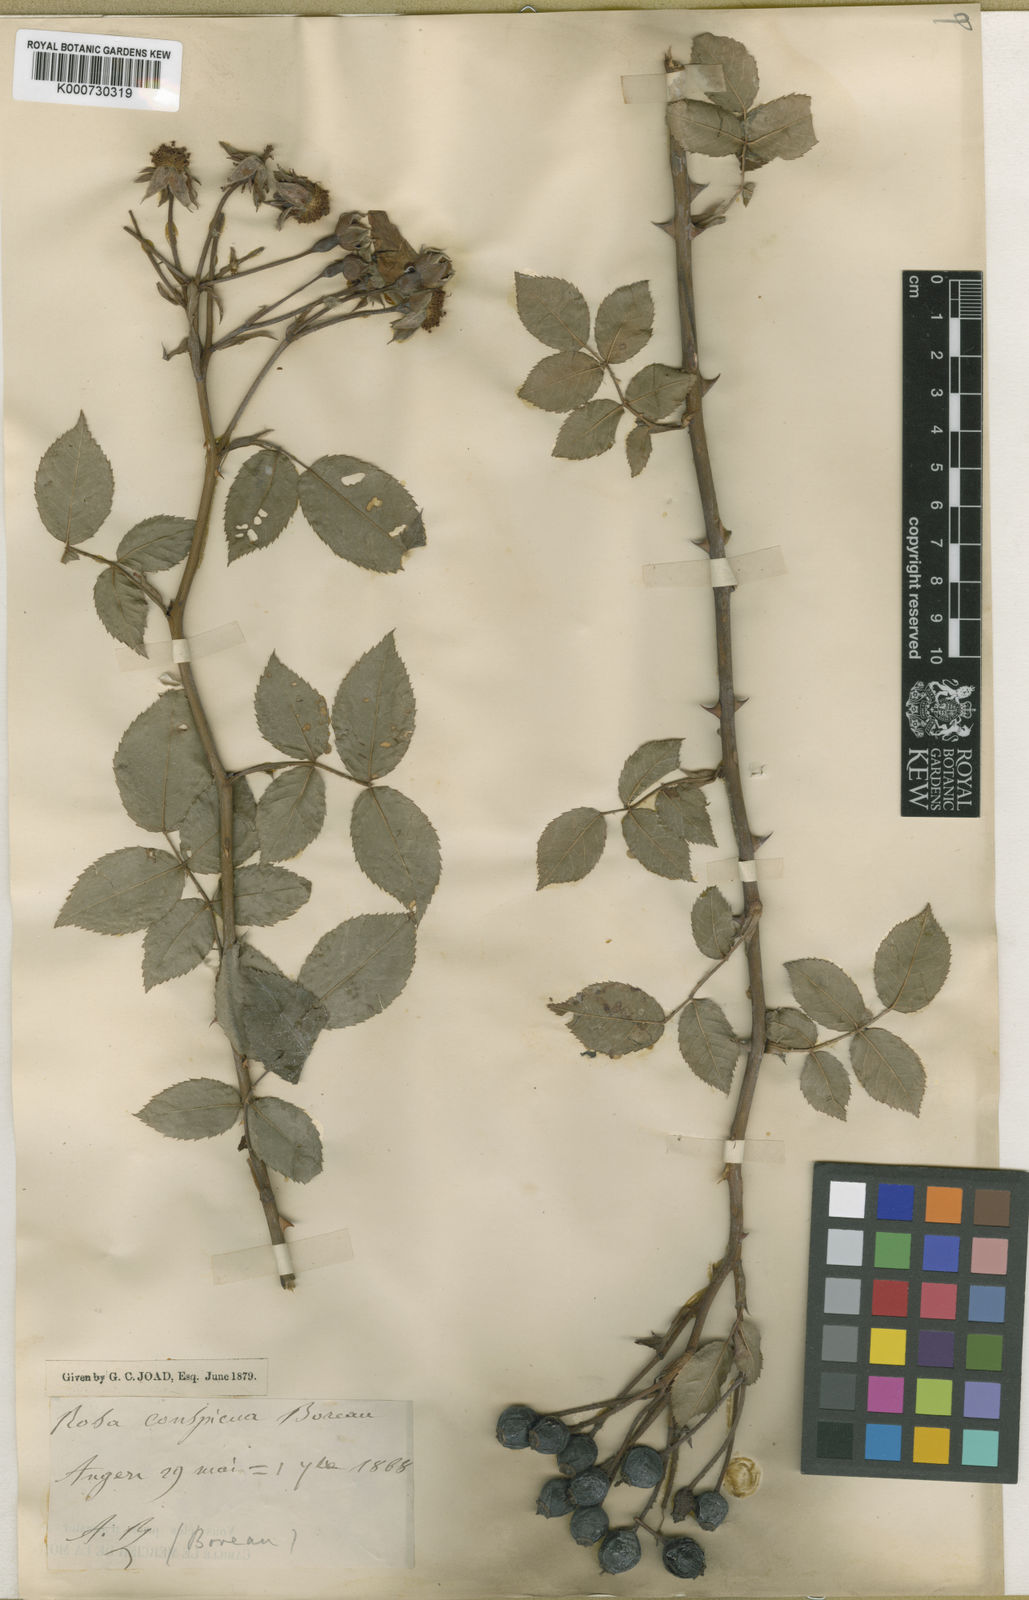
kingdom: Plantae
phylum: Tracheophyta
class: Magnoliopsida
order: Rosales
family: Rosaceae
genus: Rosa
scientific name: Rosa
